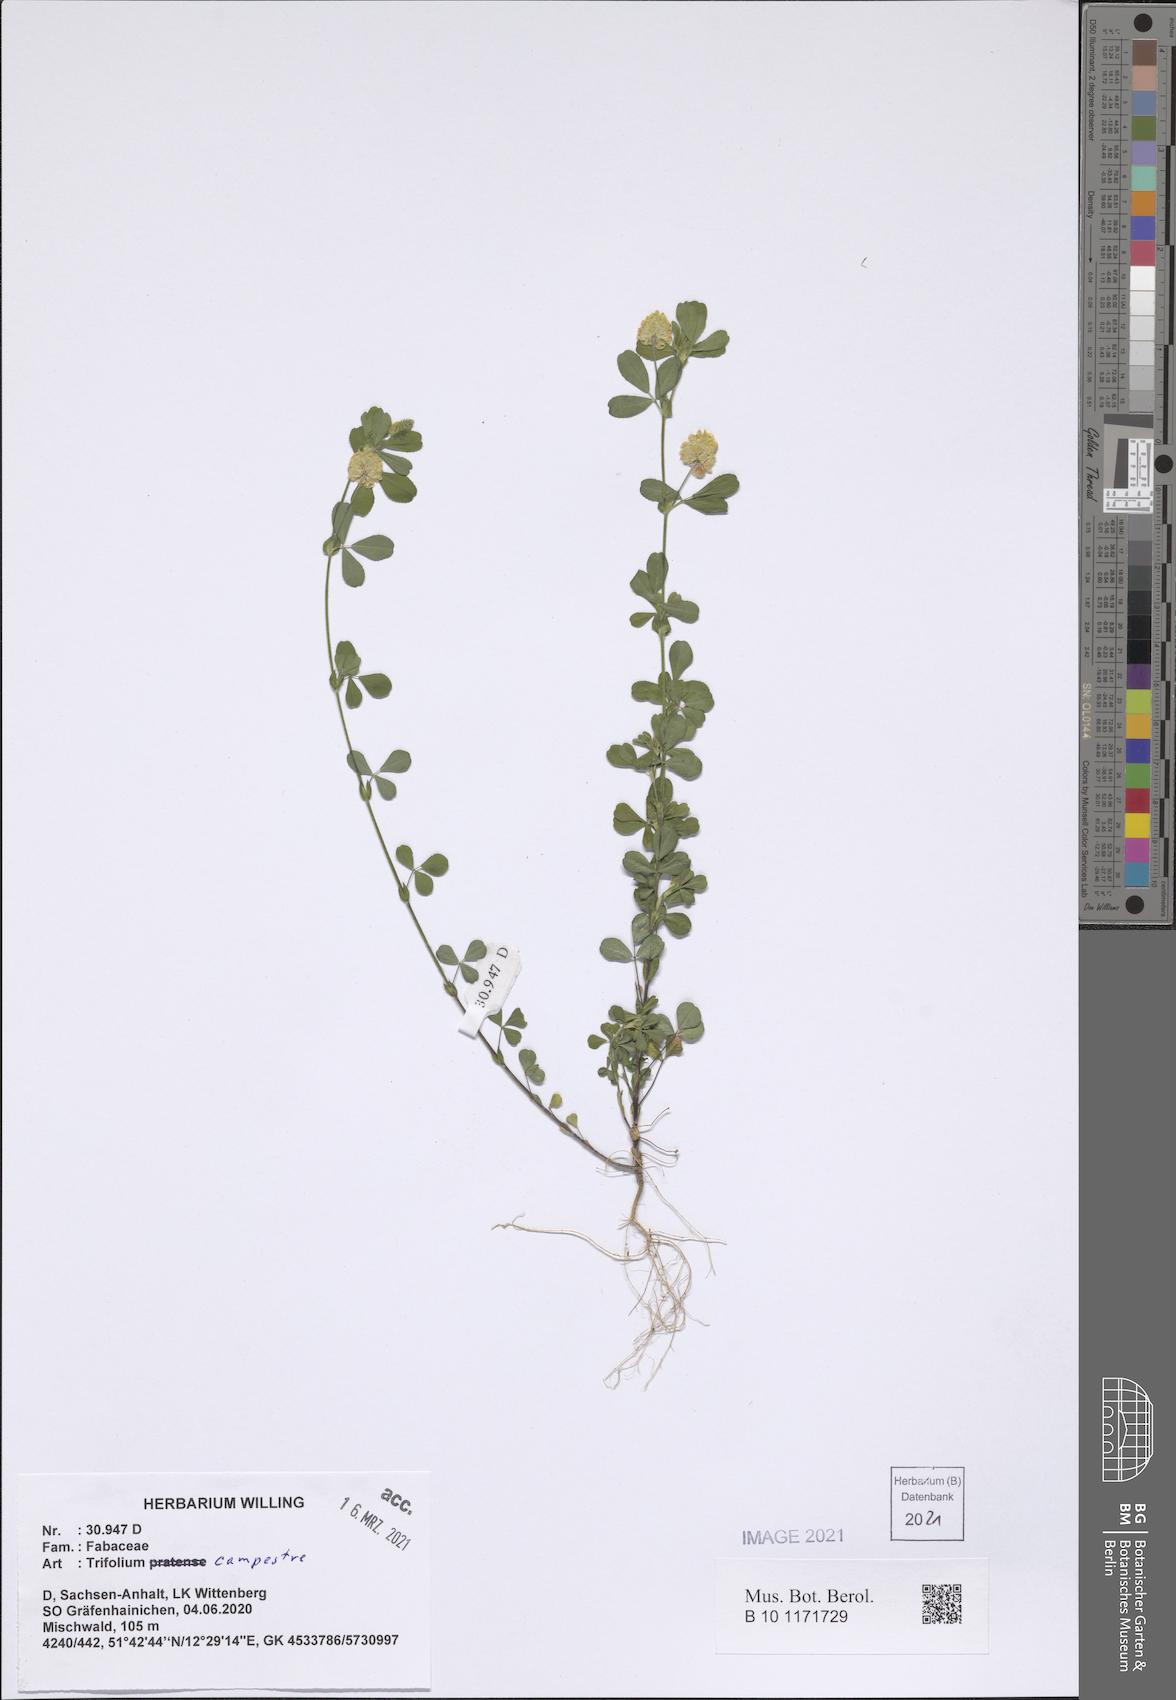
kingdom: Plantae
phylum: Tracheophyta
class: Magnoliopsida
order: Fabales
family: Fabaceae
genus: Trifolium
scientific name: Trifolium campestre
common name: Field clover
